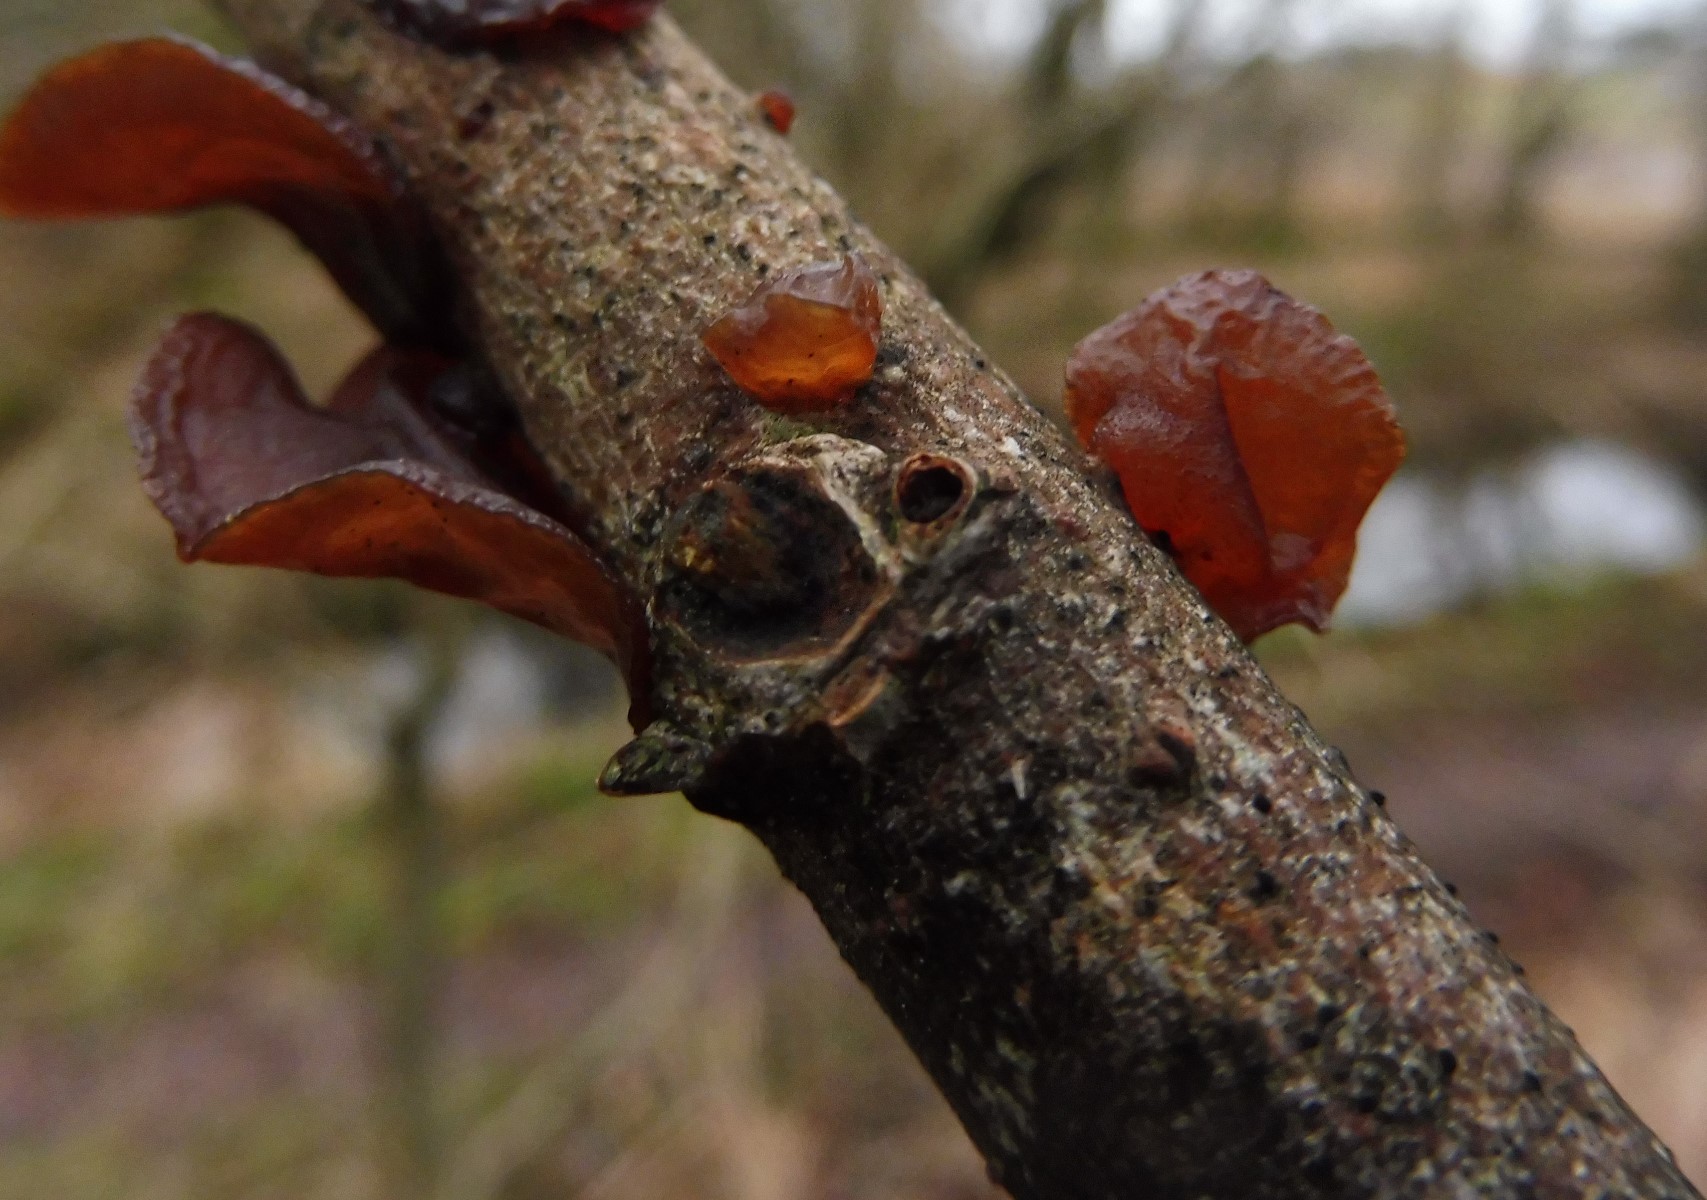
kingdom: Fungi
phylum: Basidiomycota
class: Agaricomycetes
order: Auriculariales
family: Auriculariaceae
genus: Exidia
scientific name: Exidia recisa
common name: pile-bævretop
